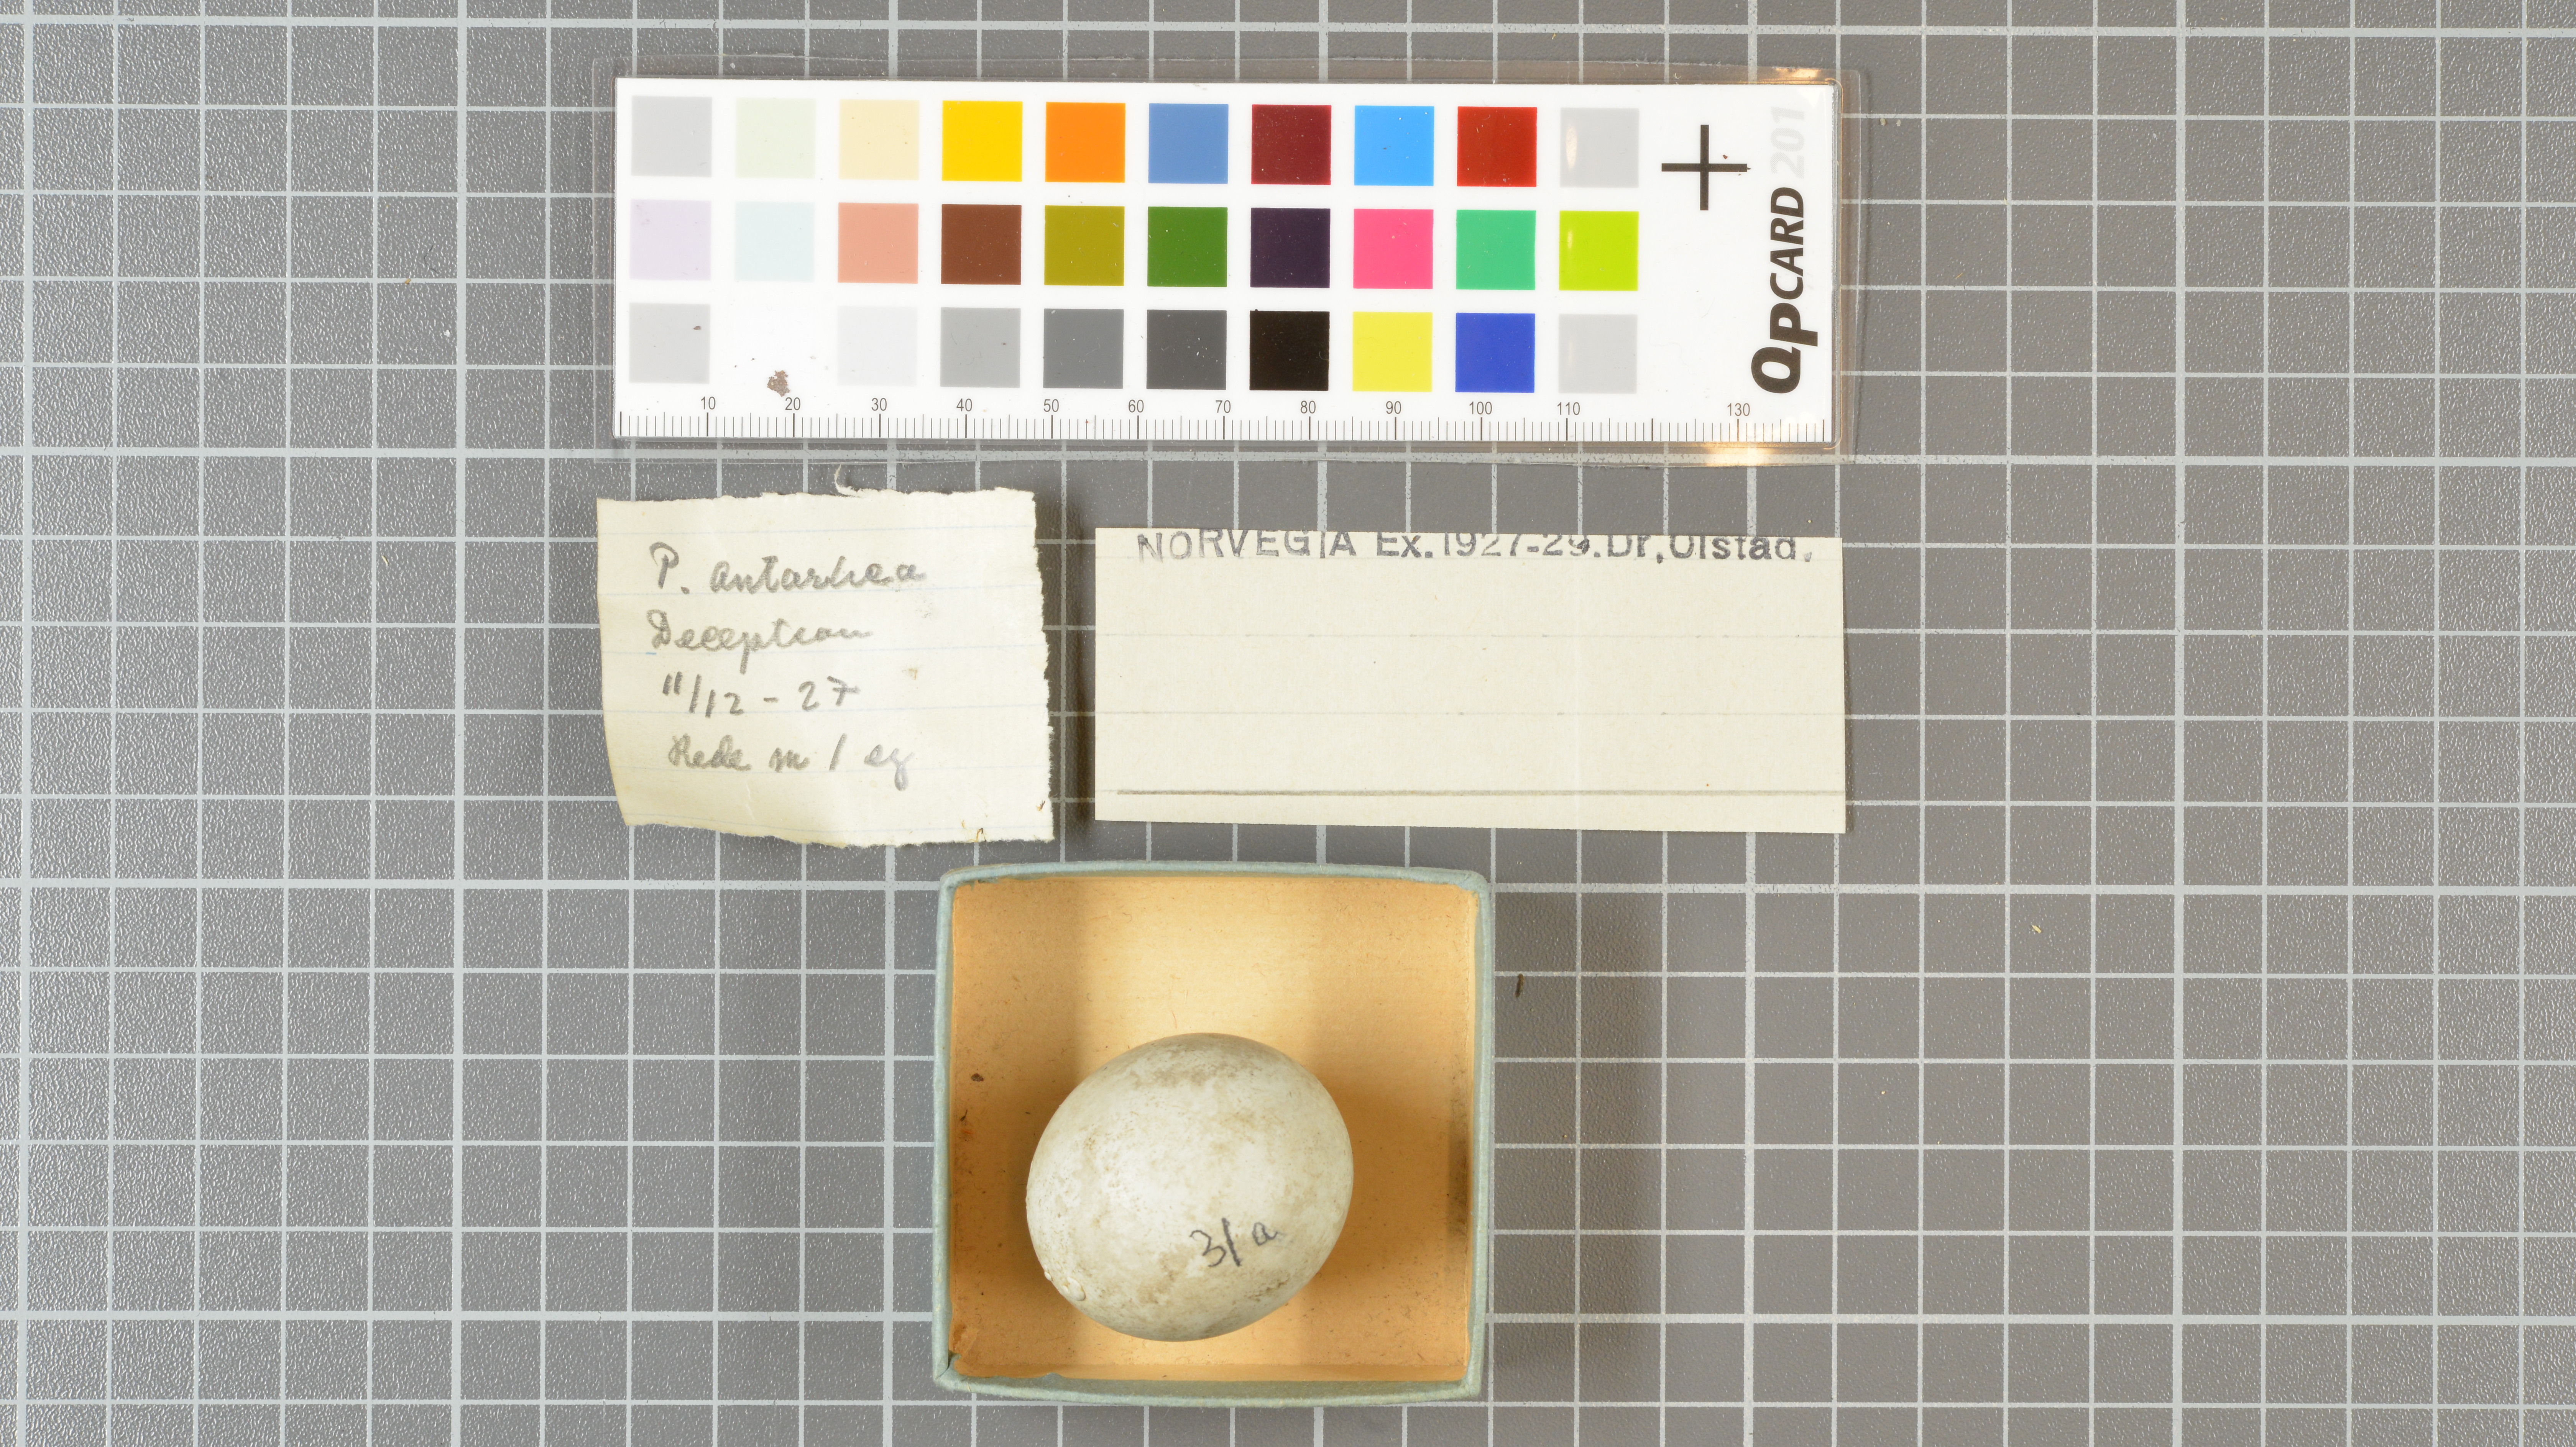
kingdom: Animalia
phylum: Chordata
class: Aves
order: Sphenisciformes
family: Spheniscidae
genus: Pygoscelis
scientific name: Pygoscelis antarcticus
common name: Chinstrap penguin
